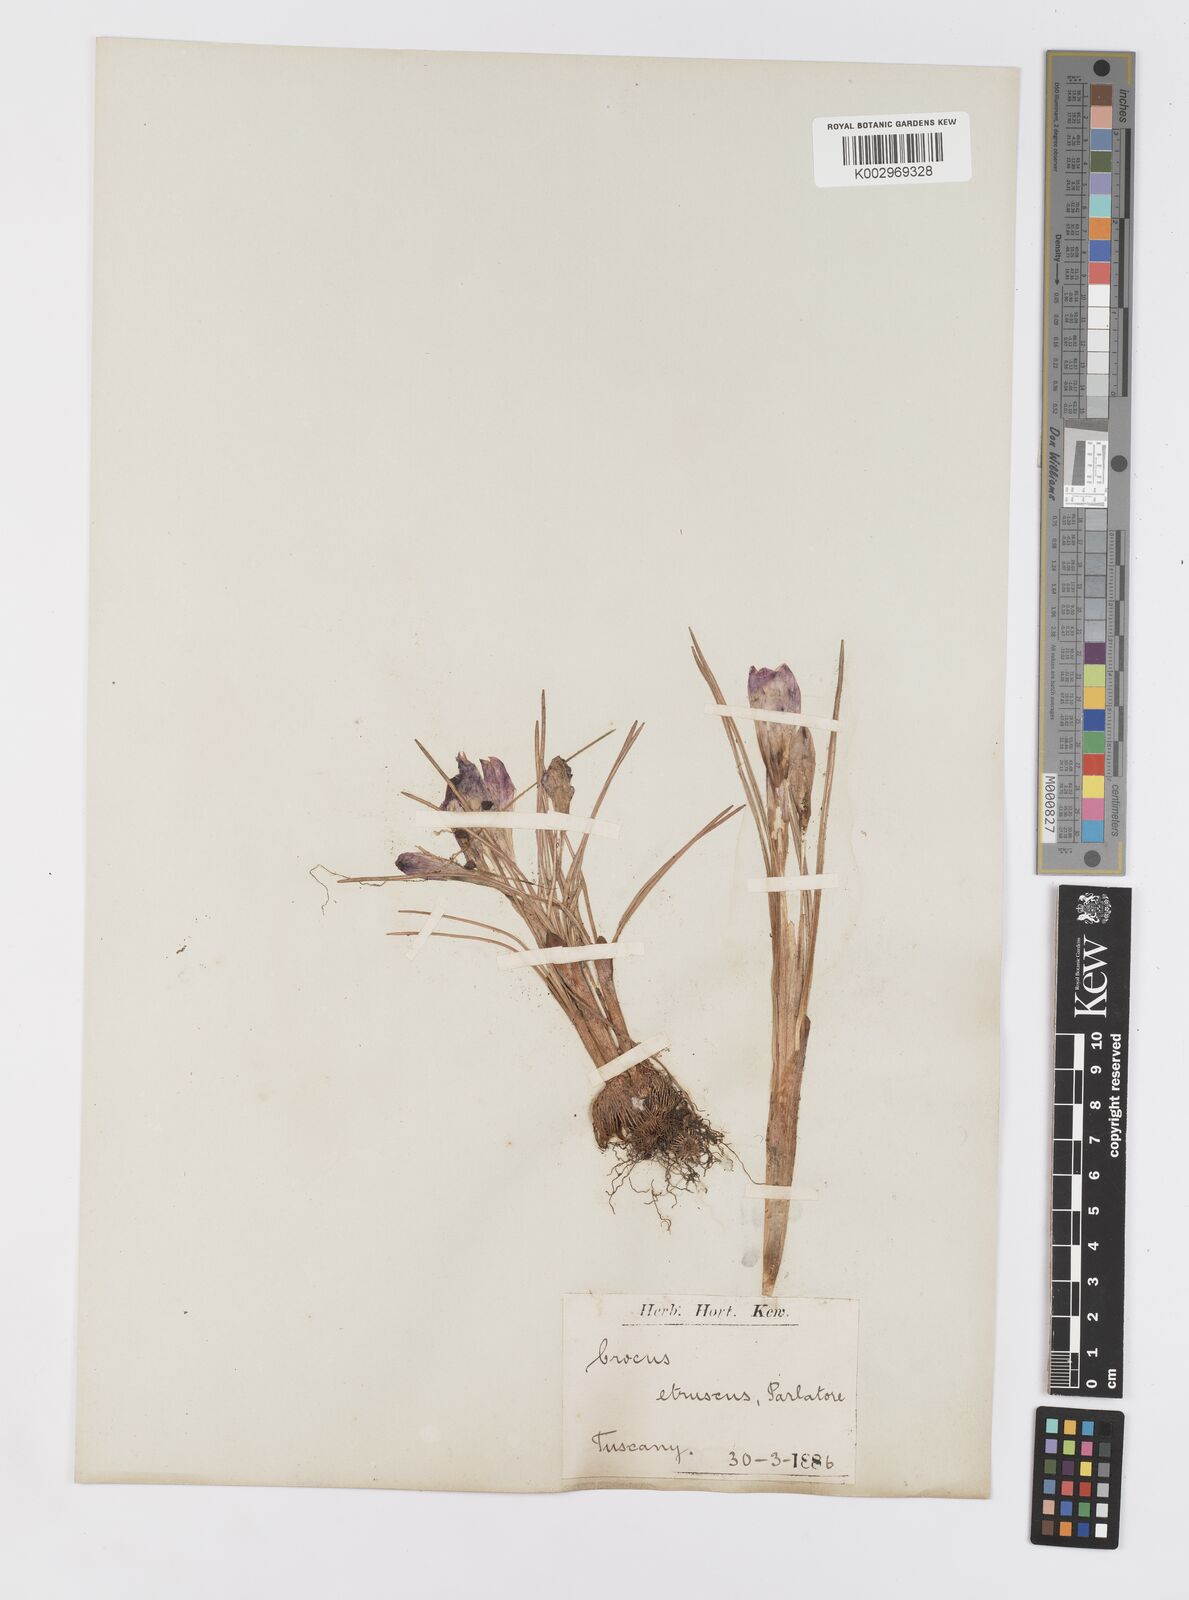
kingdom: Plantae
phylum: Tracheophyta
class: Liliopsida
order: Asparagales
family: Iridaceae
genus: Crocus
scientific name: Crocus etruscus
